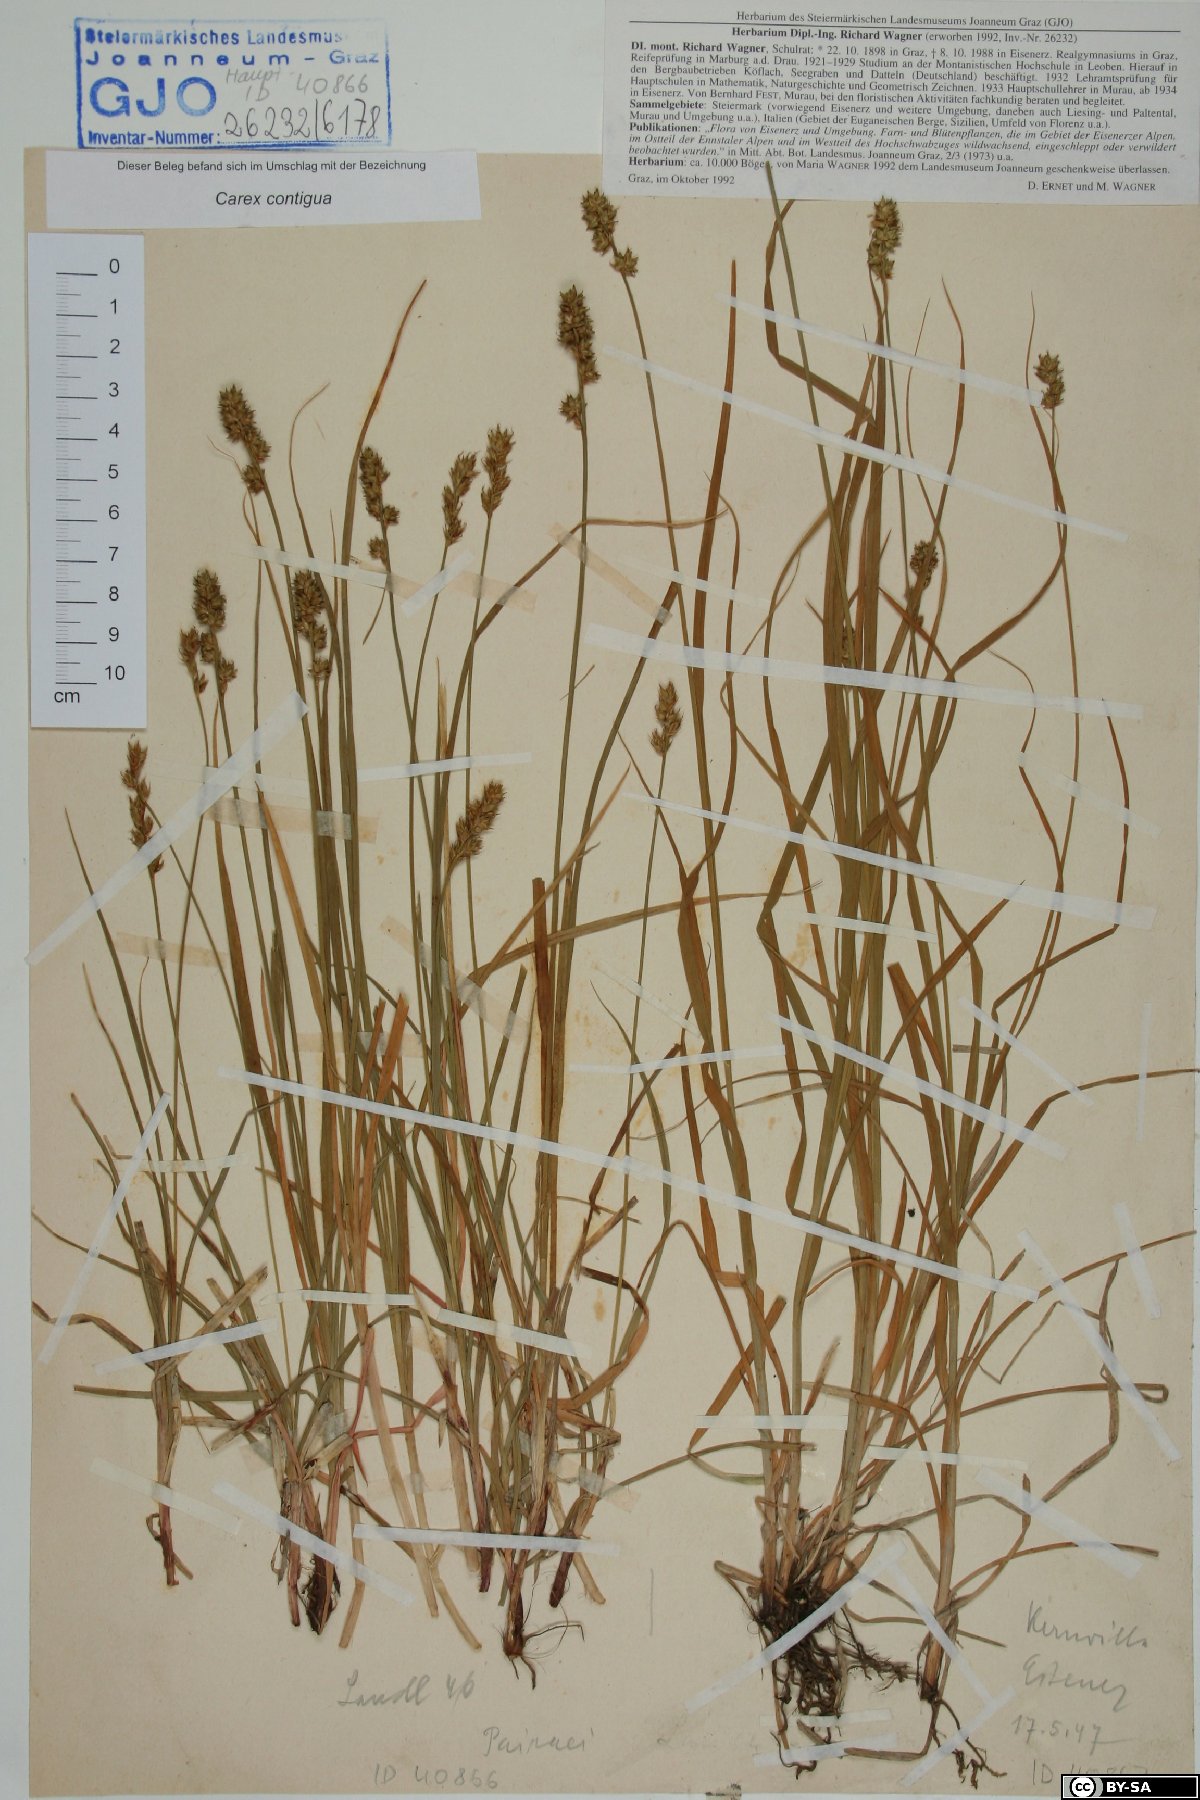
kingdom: Plantae
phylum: Tracheophyta
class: Liliopsida
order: Poales
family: Cyperaceae
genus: Carex
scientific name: Carex spicata
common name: Spiked sedge
